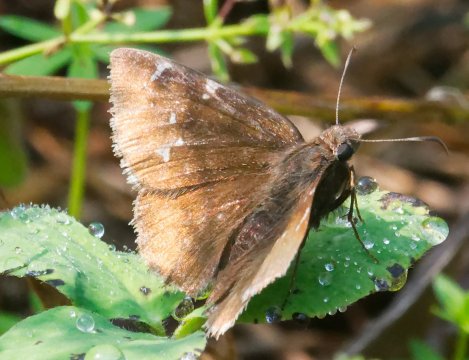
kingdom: Animalia
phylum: Arthropoda
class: Insecta
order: Lepidoptera
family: Hesperiidae
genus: Autochton
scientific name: Autochton
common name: Northern Cloudywing
